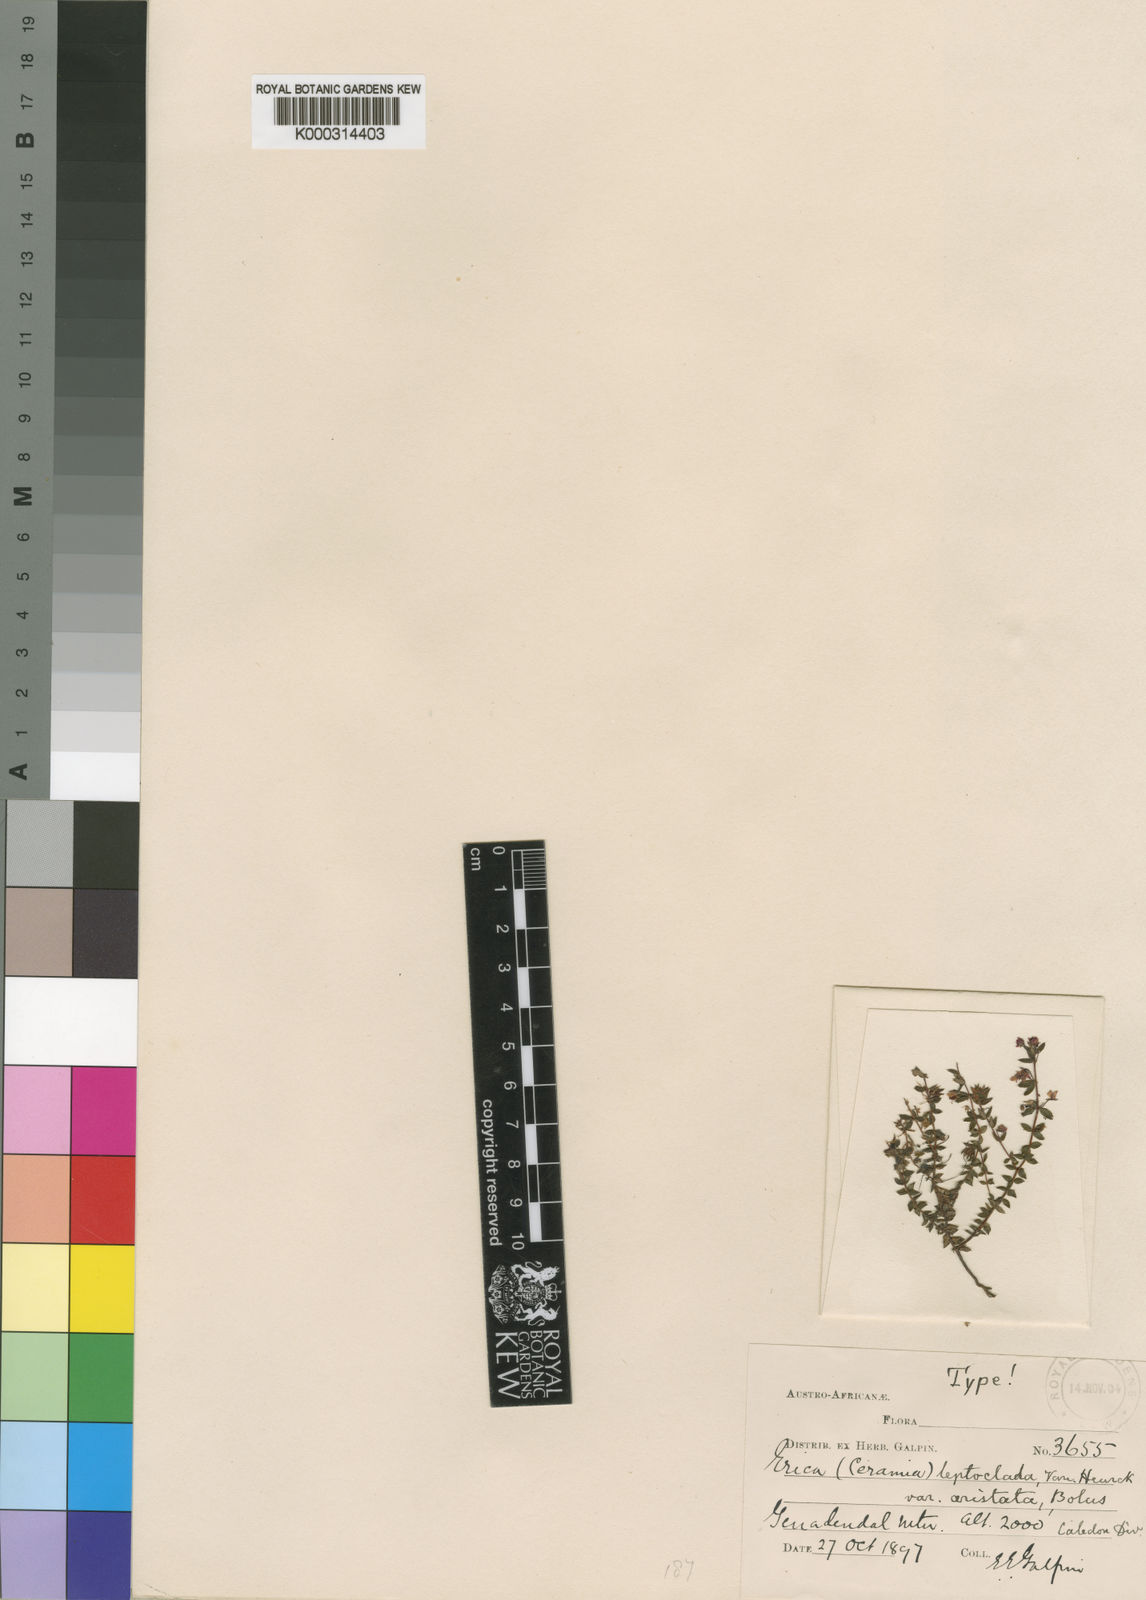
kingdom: Plantae
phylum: Tracheophyta
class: Magnoliopsida
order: Ericales
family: Ericaceae
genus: Erica
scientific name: Erica
